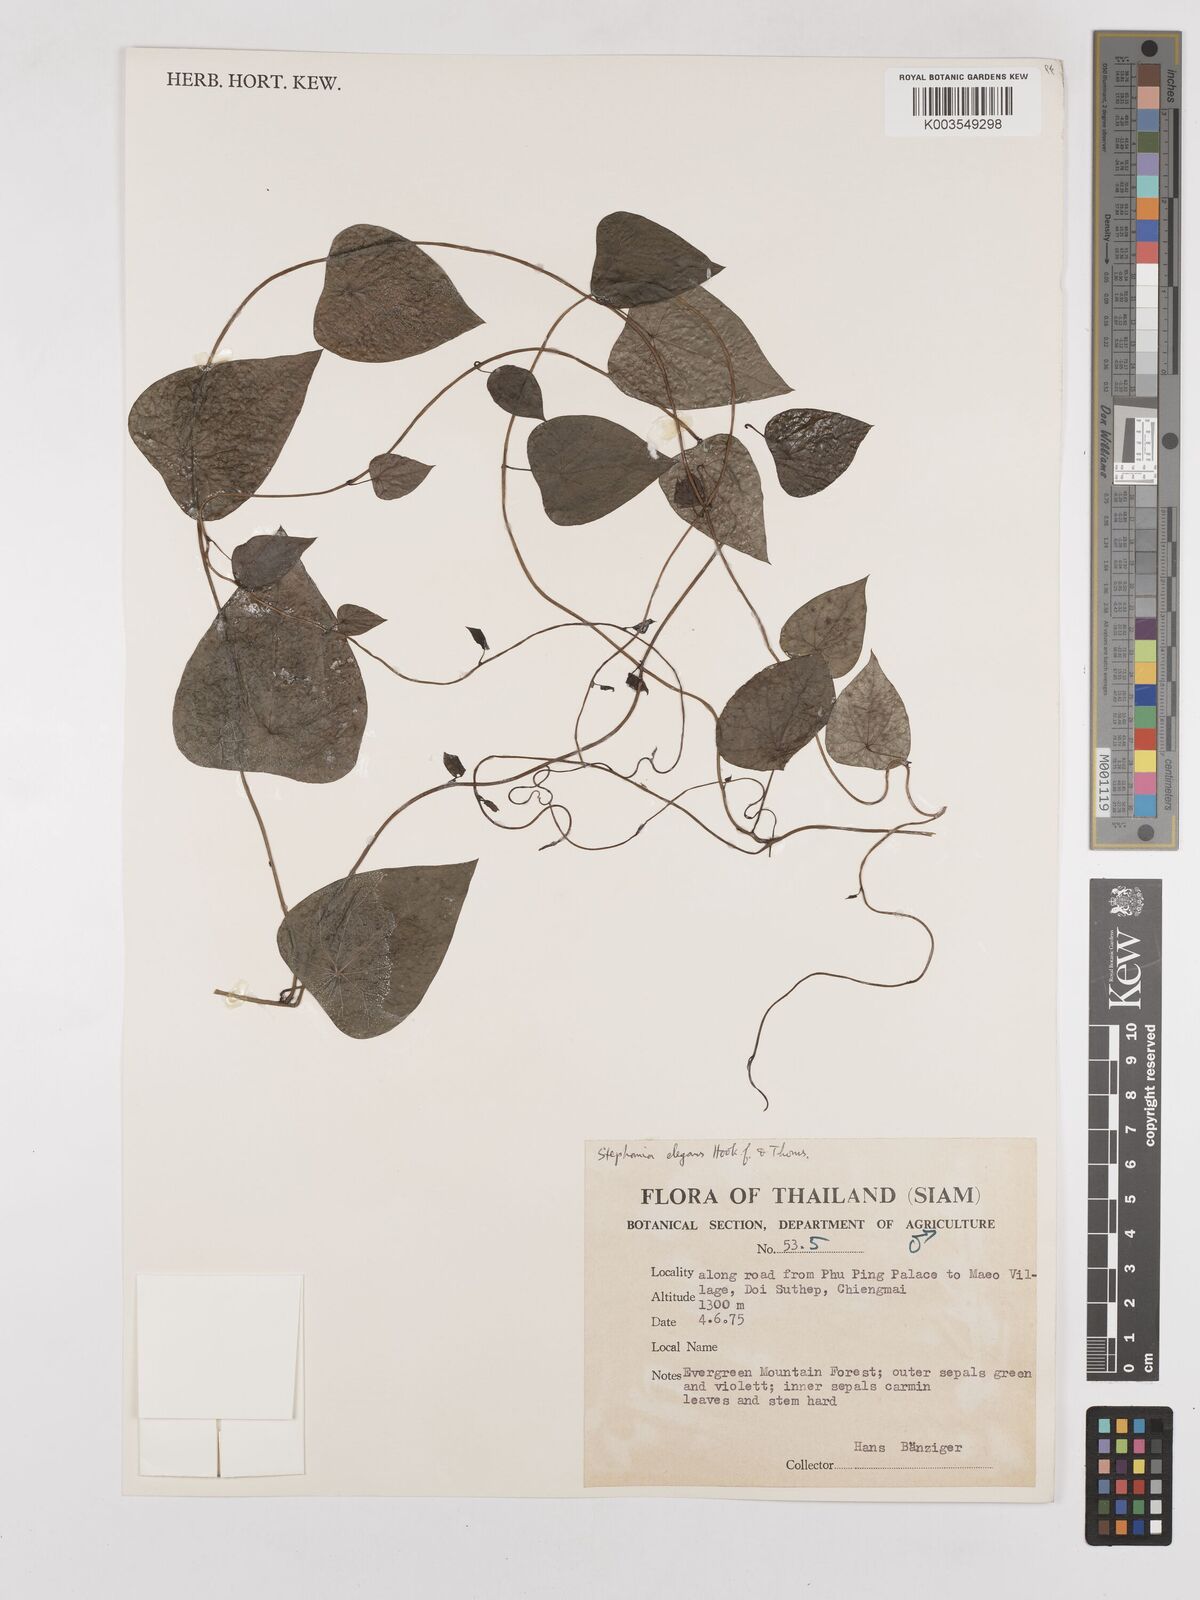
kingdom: Plantae
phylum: Tracheophyta
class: Magnoliopsida
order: Ranunculales
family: Menispermaceae
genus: Stephania
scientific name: Stephania elegans
